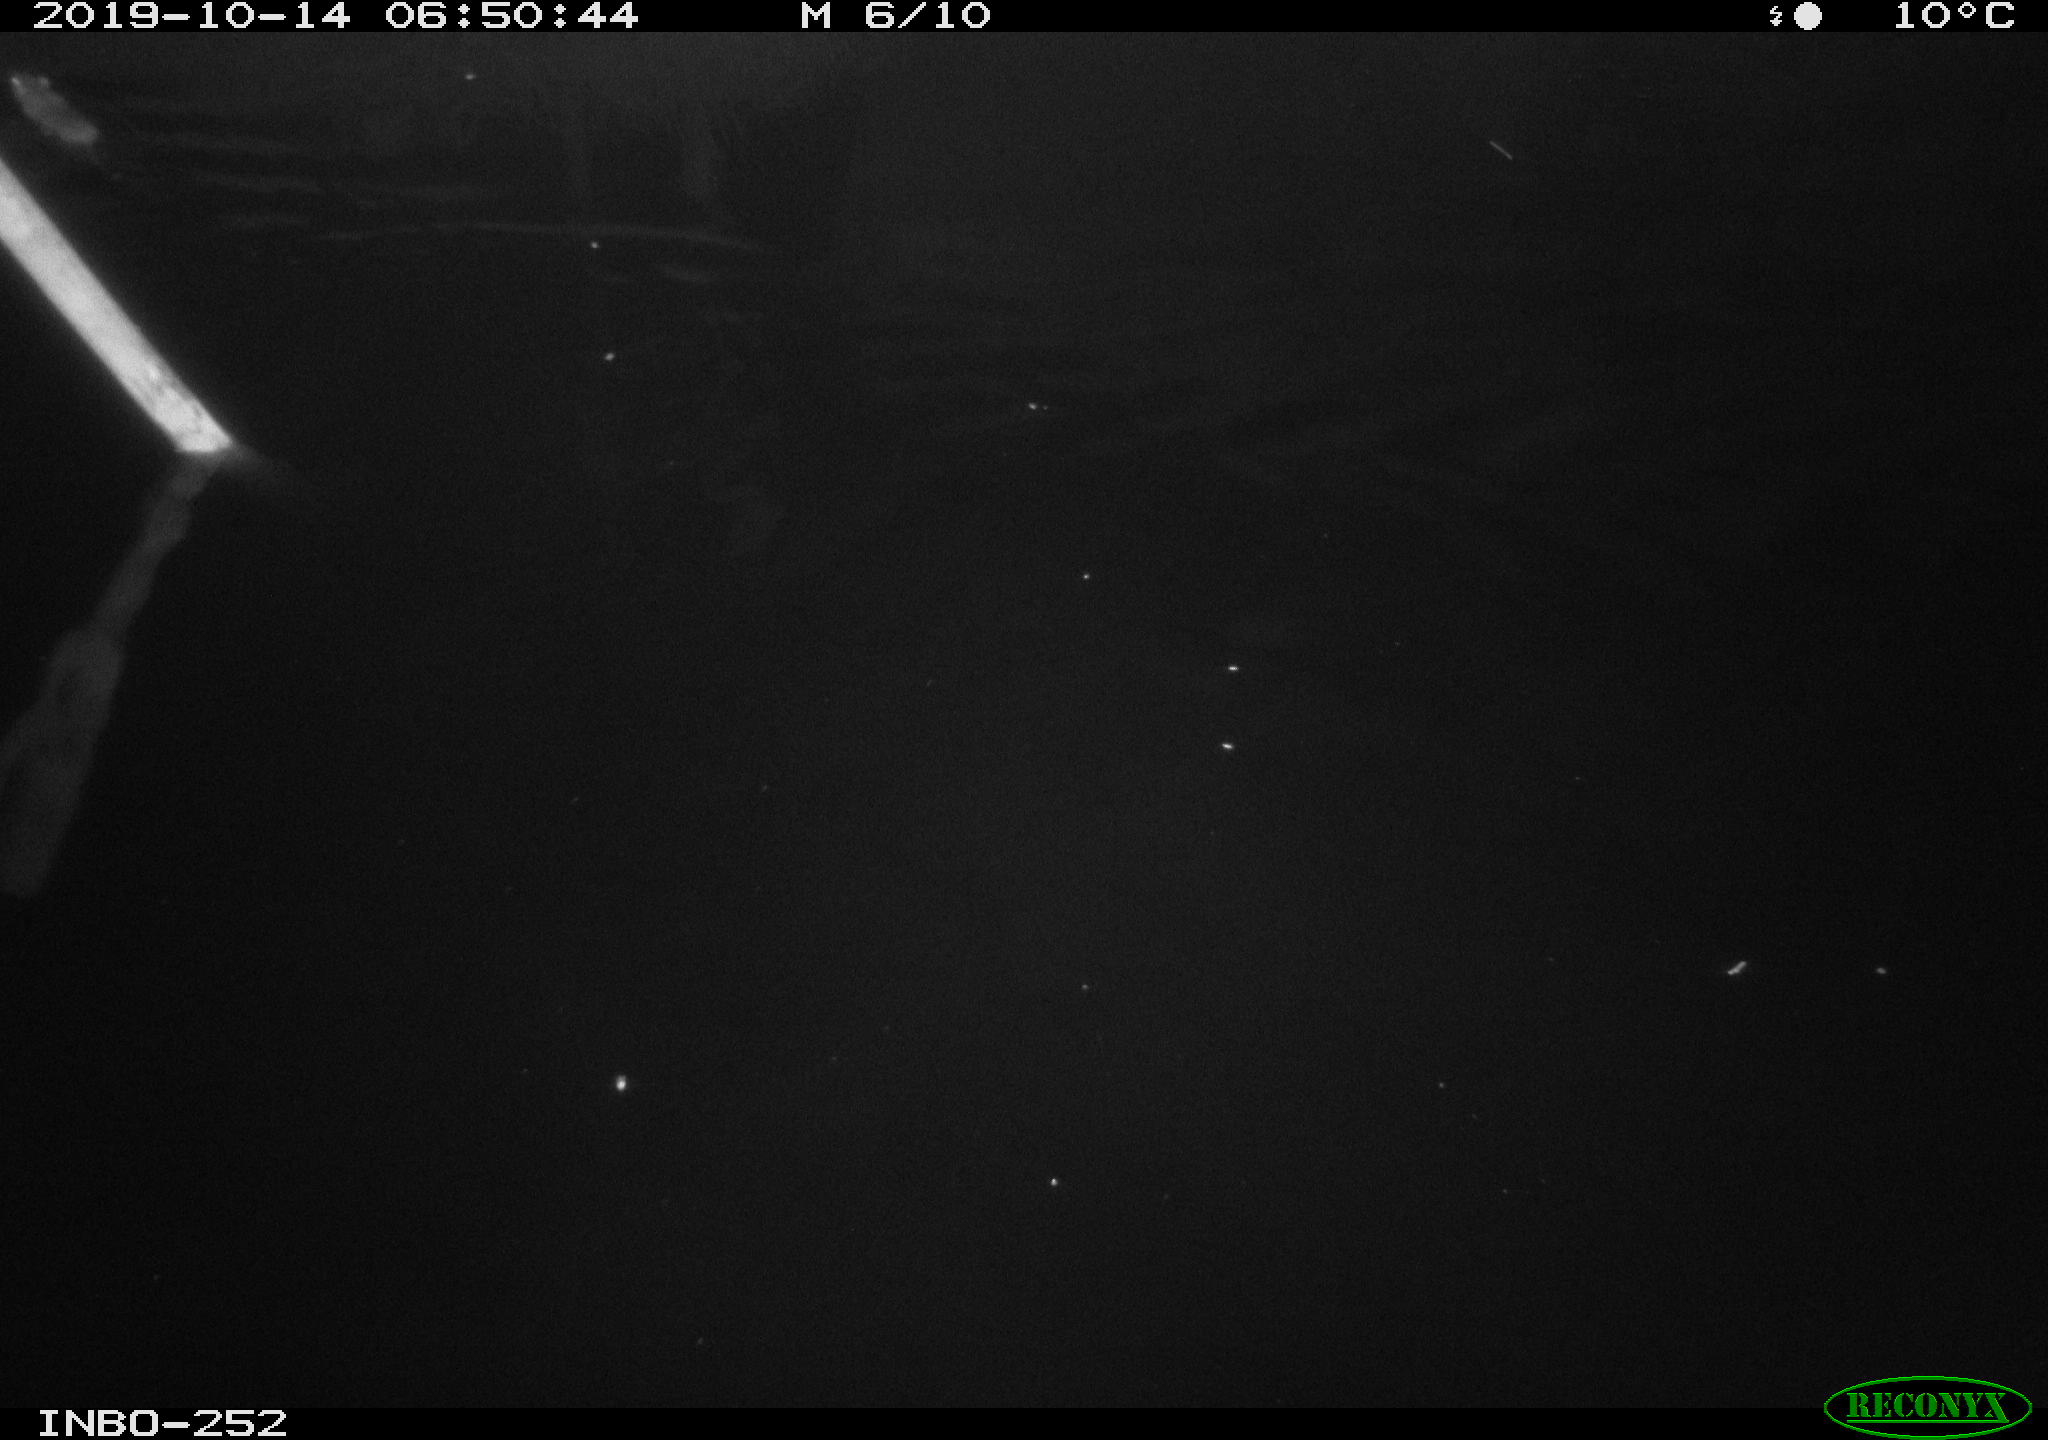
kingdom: Animalia
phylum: Chordata
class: Mammalia
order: Rodentia
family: Muridae
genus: Rattus
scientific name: Rattus norvegicus
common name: Brown rat
